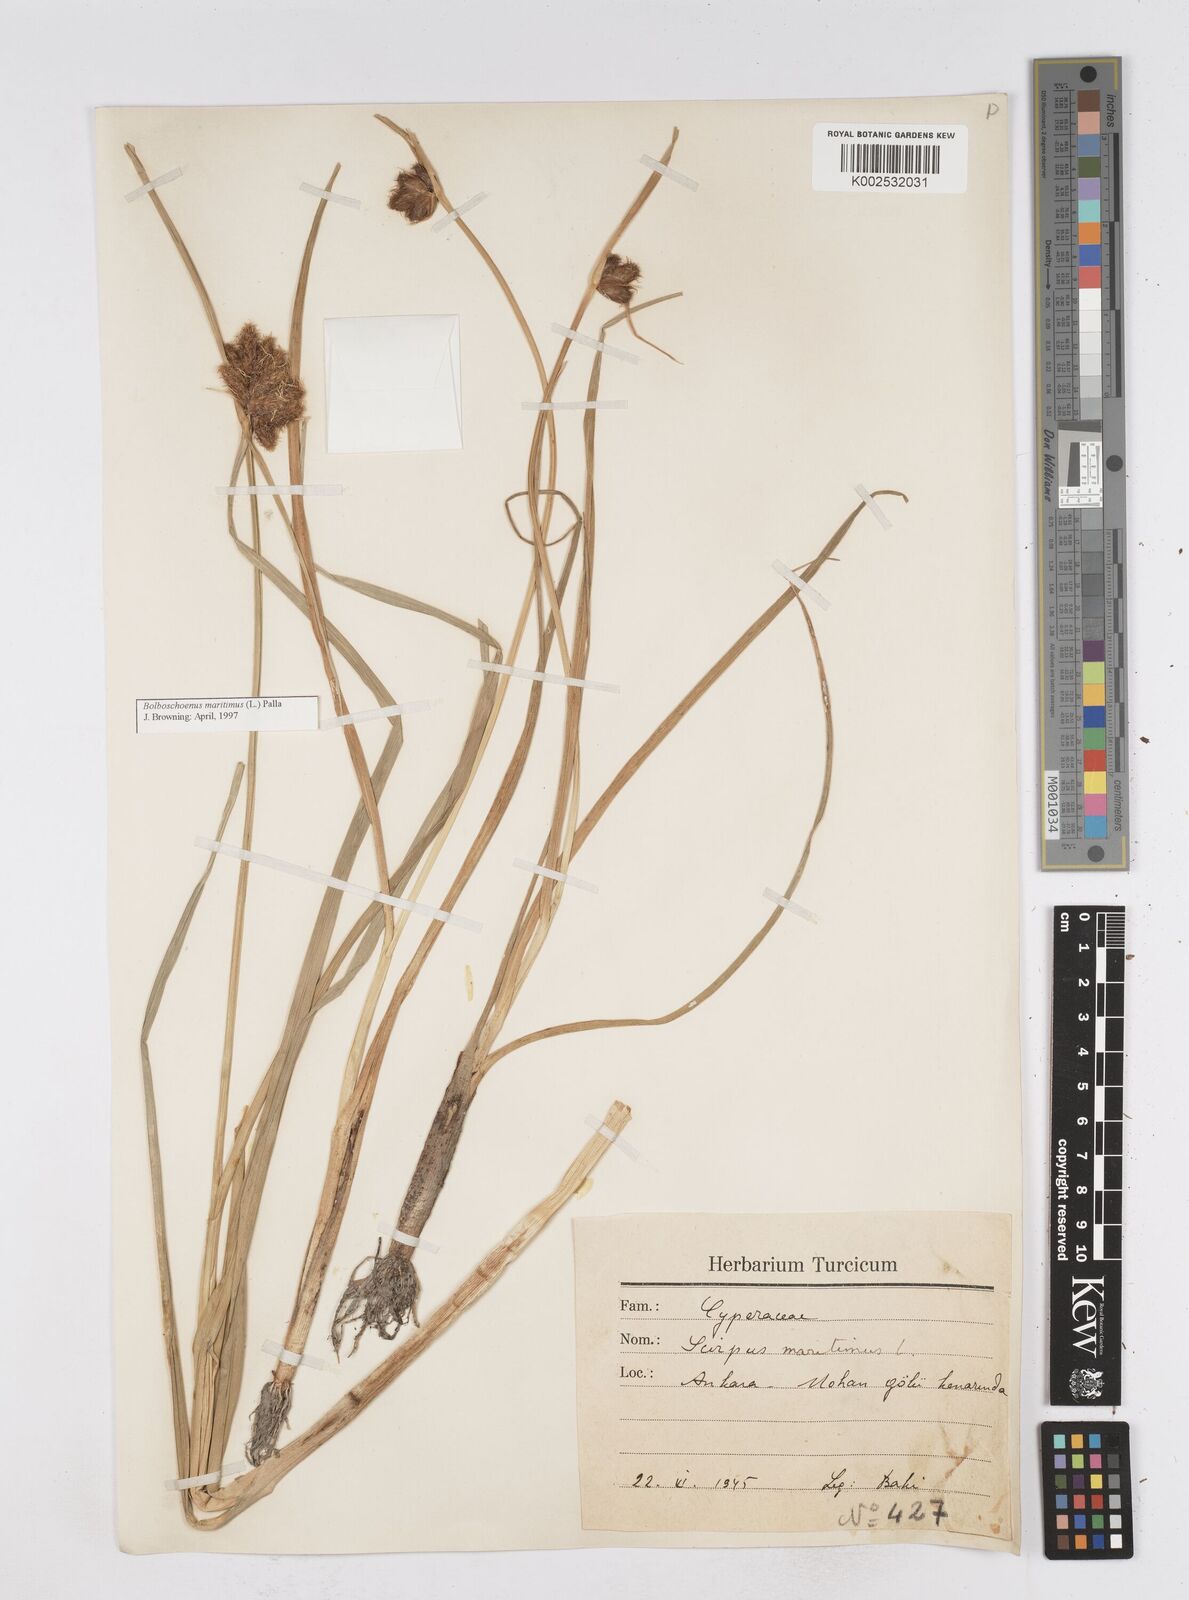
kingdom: Plantae
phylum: Tracheophyta
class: Liliopsida
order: Poales
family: Cyperaceae
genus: Bolboschoenus
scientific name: Bolboschoenus maritimus
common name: Sea club-rush
